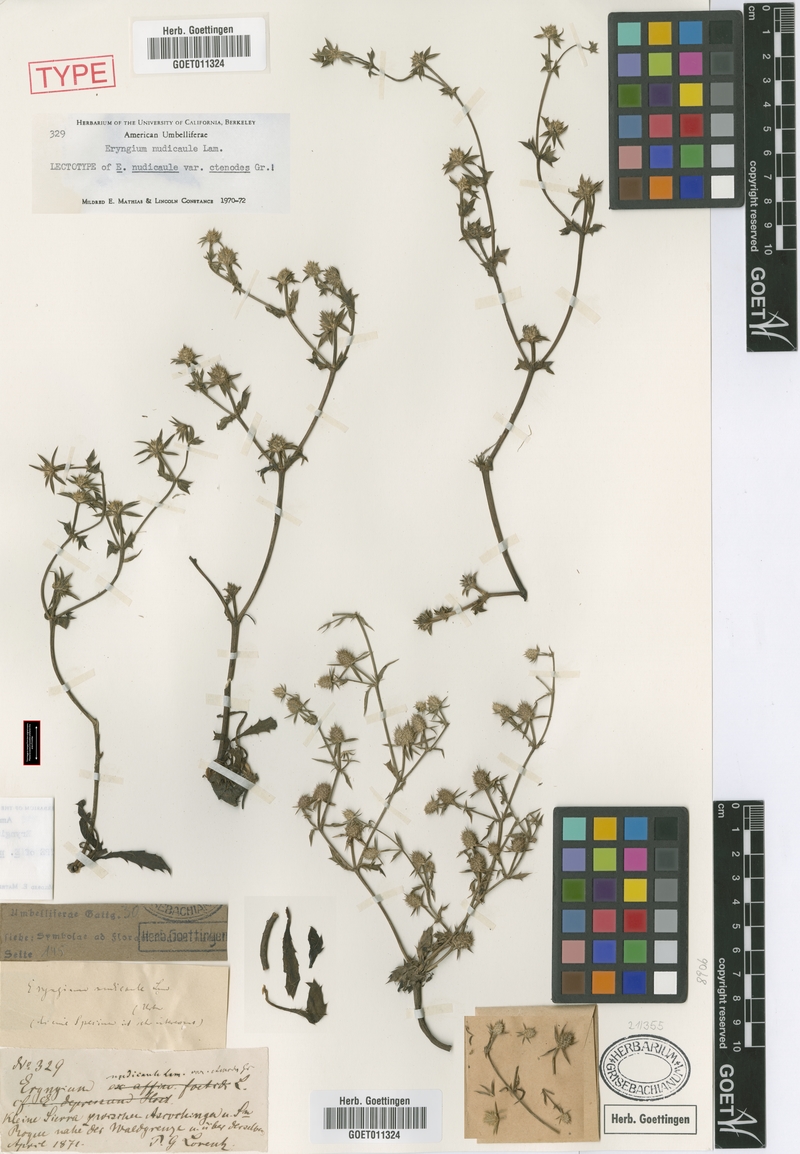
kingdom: Plantae
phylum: Tracheophyta
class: Magnoliopsida
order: Apiales
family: Apiaceae
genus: Eryngium
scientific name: Eryngium nudicaule
